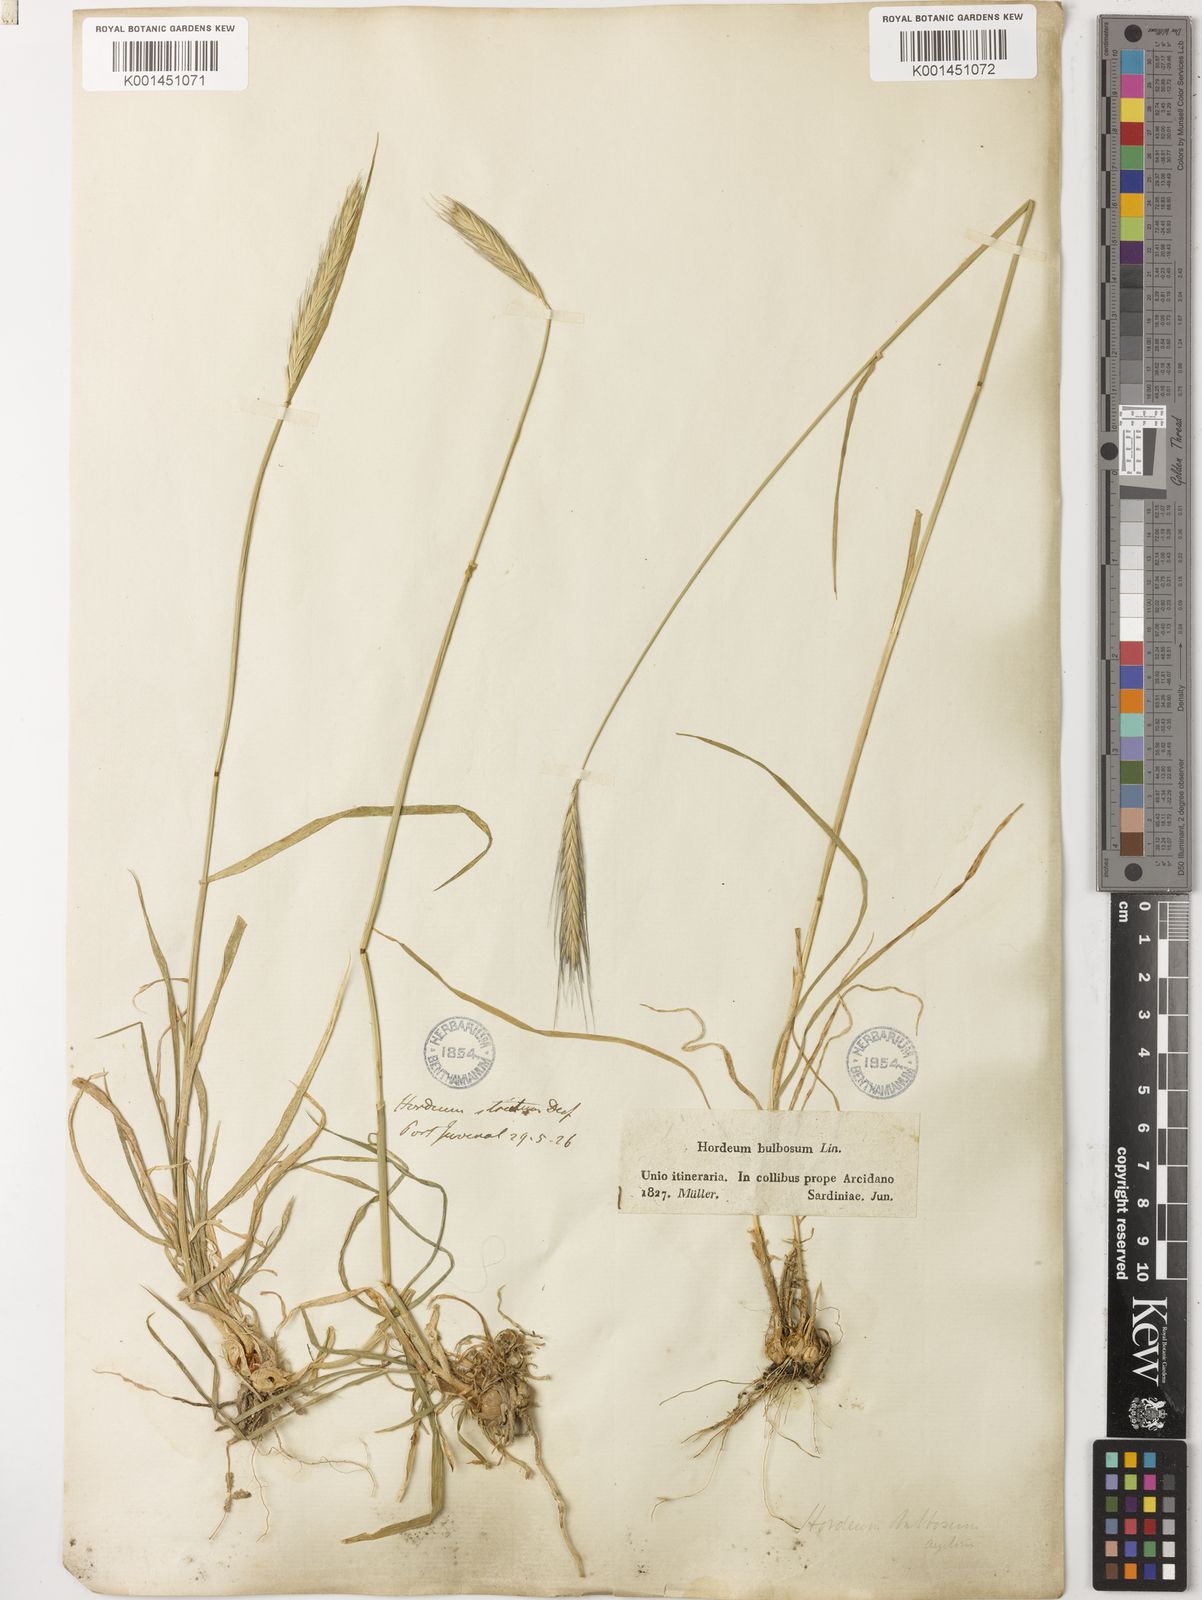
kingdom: Plantae
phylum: Tracheophyta
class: Liliopsida
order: Poales
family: Poaceae
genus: Hordeum
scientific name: Hordeum bulbosum
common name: Bulbous barley
